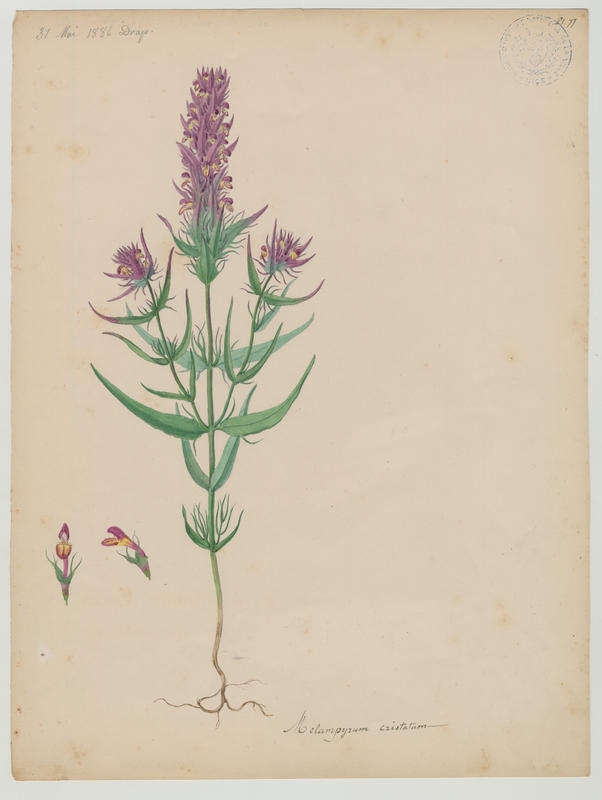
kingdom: Plantae
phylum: Tracheophyta
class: Magnoliopsida
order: Lamiales
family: Orobanchaceae
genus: Melampyrum
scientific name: Melampyrum cristatum
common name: Crested cow-wheat
